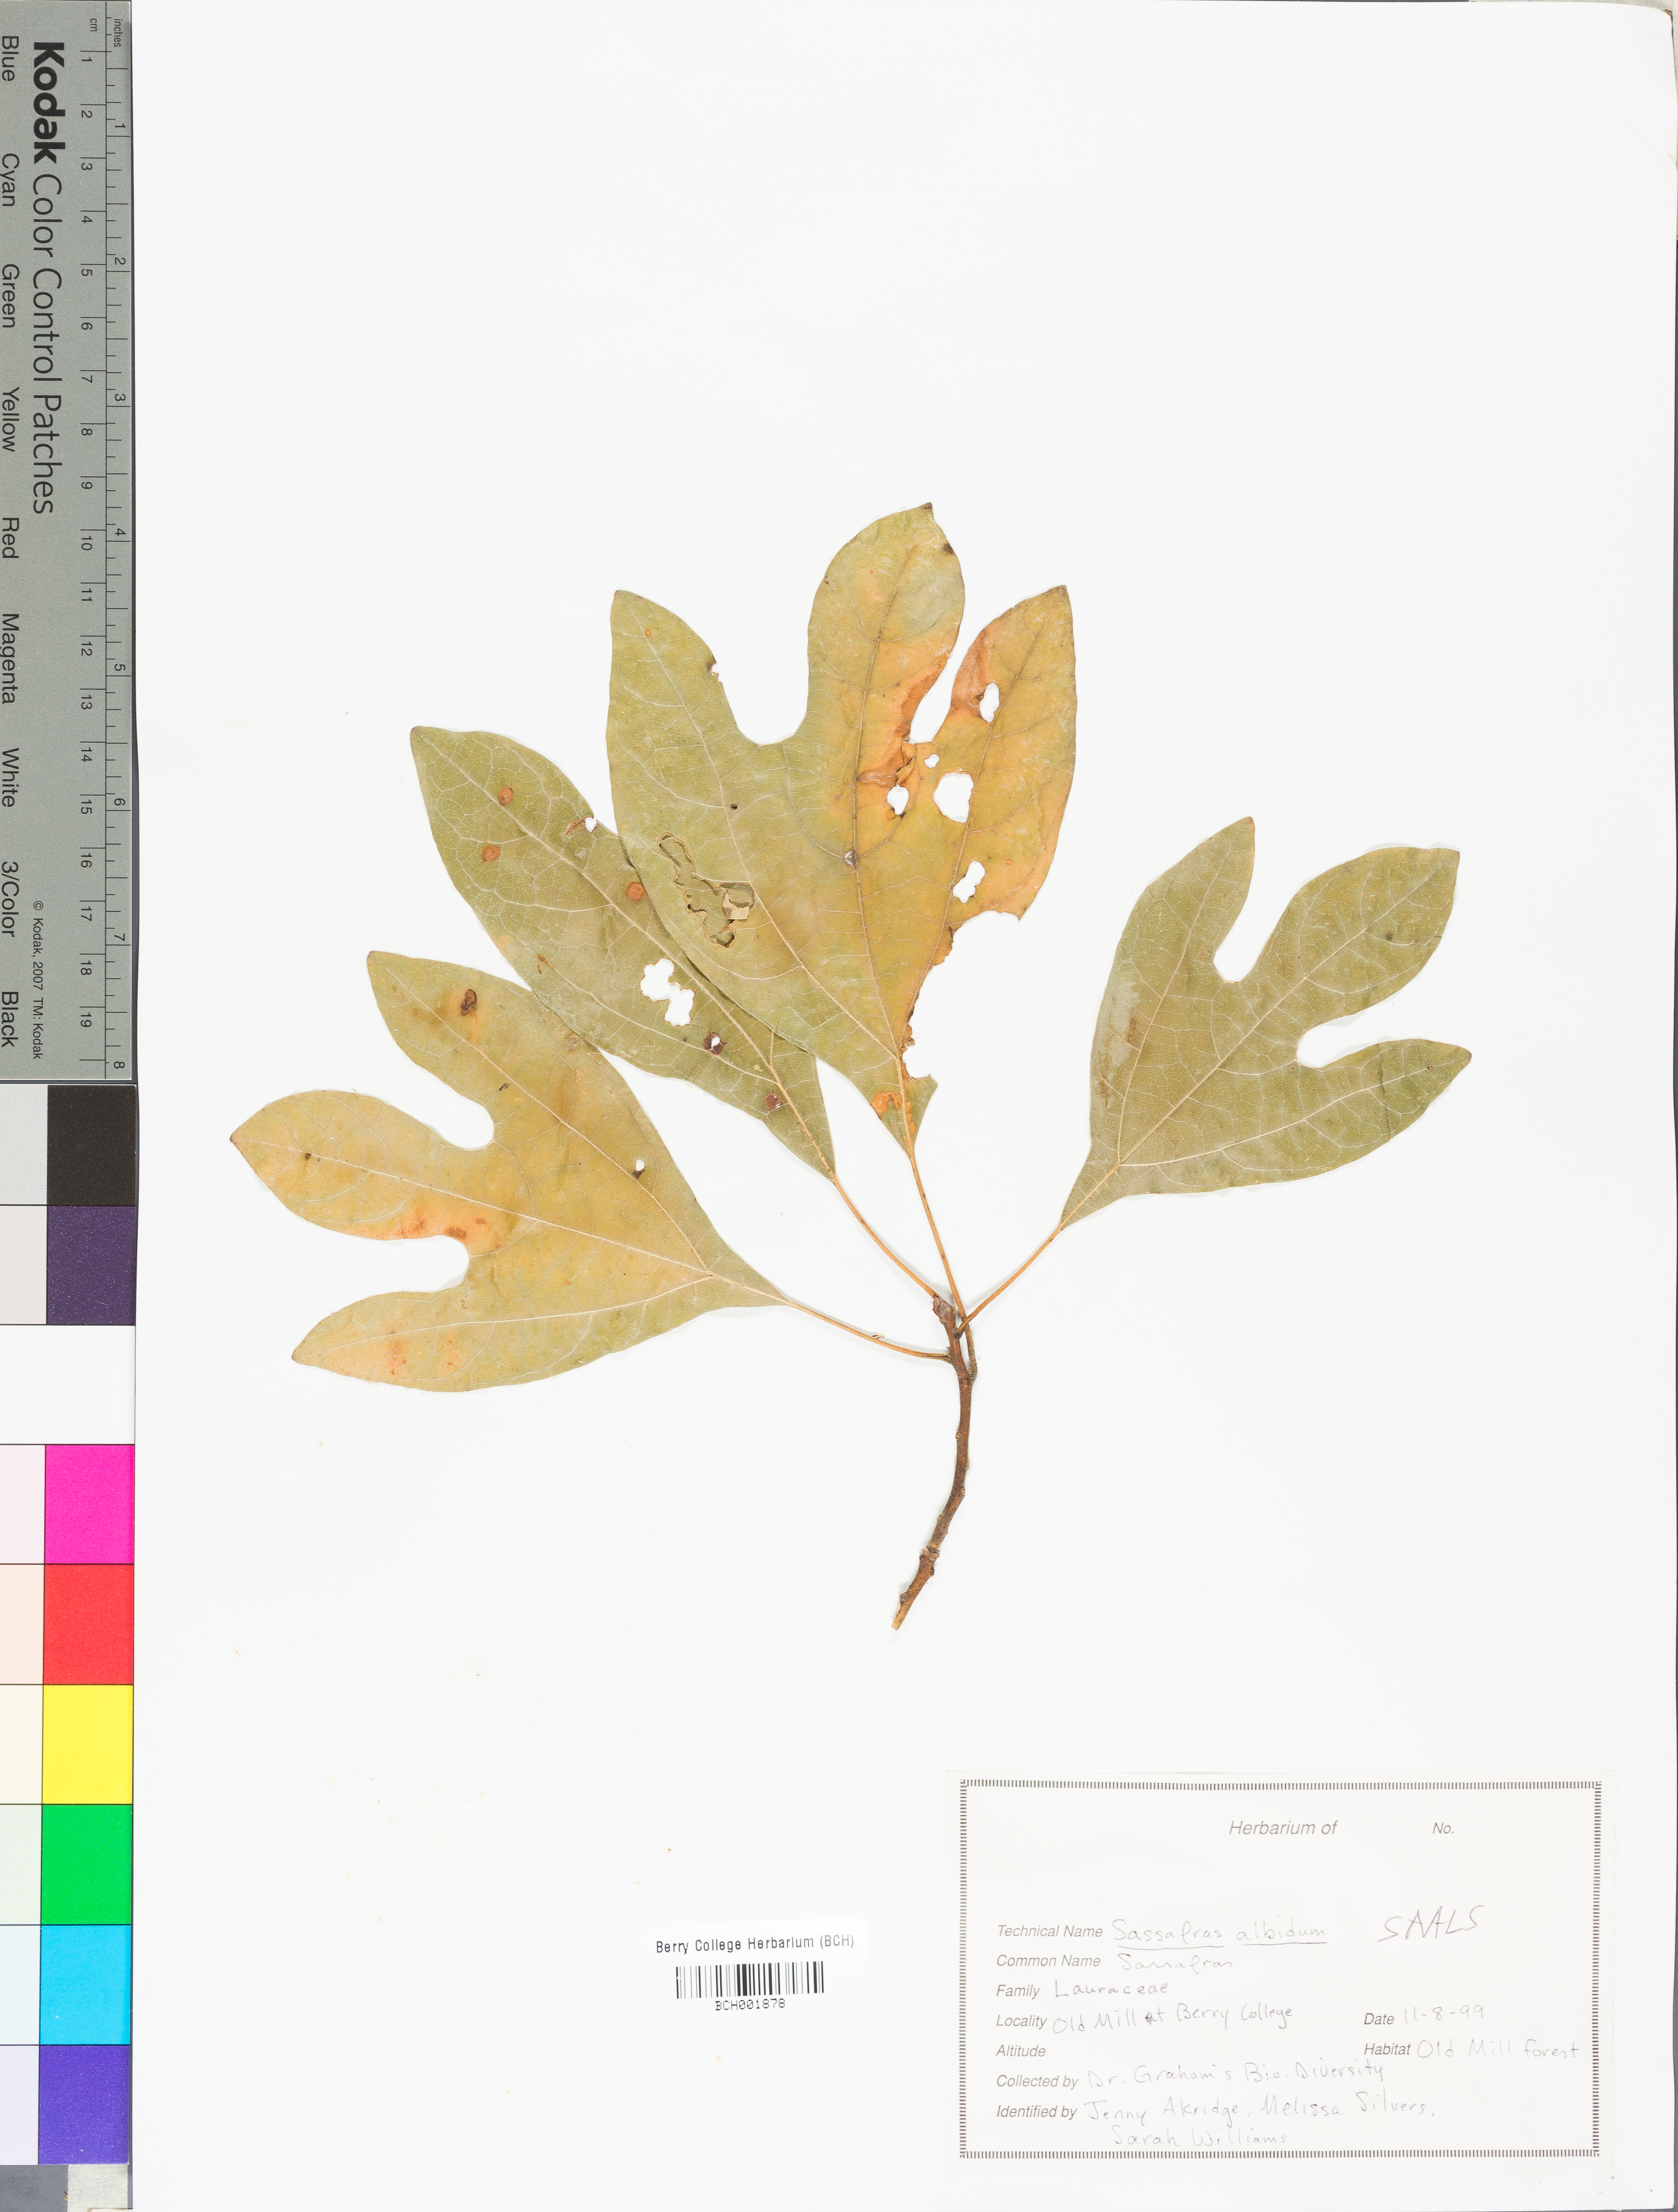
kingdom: Plantae
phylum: Tracheophyta
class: Magnoliopsida
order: Laurales
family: Lauraceae
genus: Sassafras
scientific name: Sassafras albidum
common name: Sassafras
